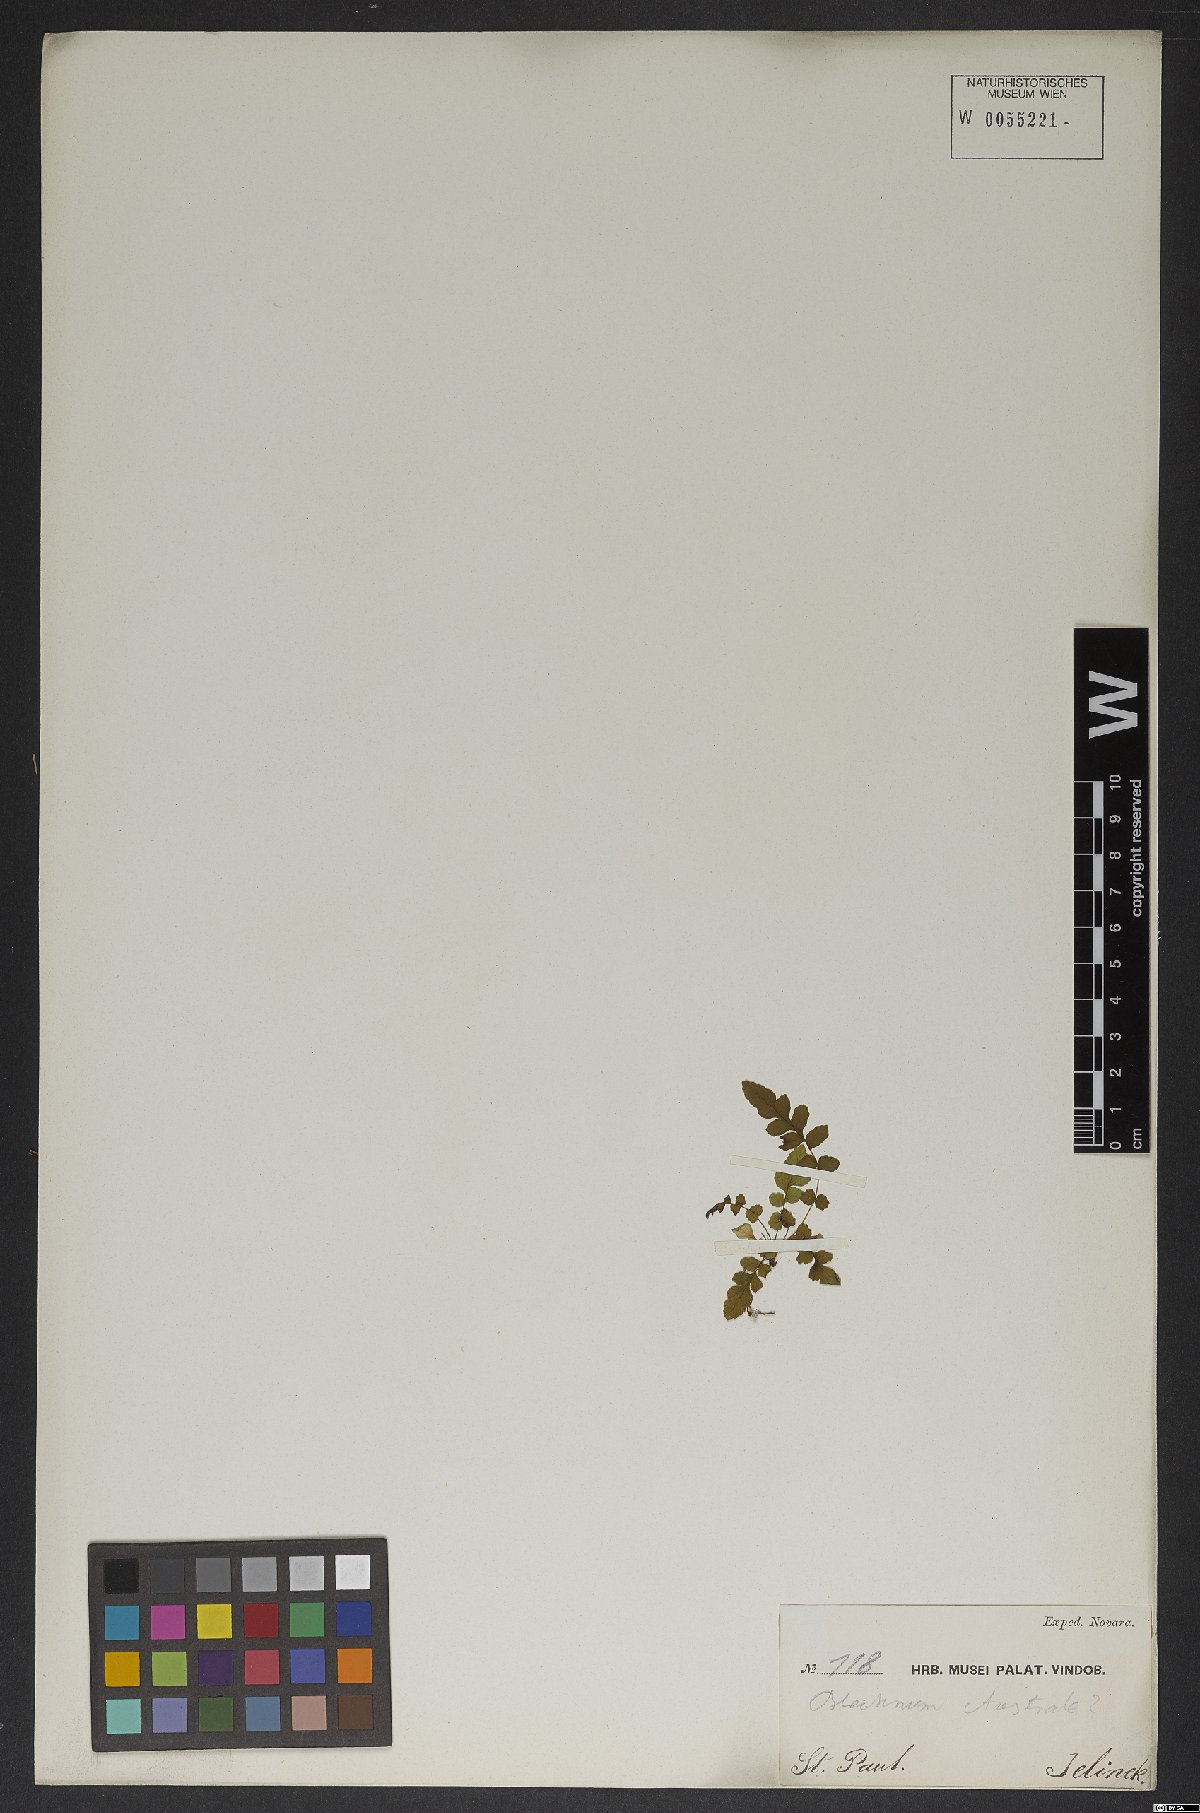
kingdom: Plantae
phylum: Tracheophyta
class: Polypodiopsida
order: Polypodiales
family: Blechnaceae
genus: Blechnum
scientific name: Blechnum australe
